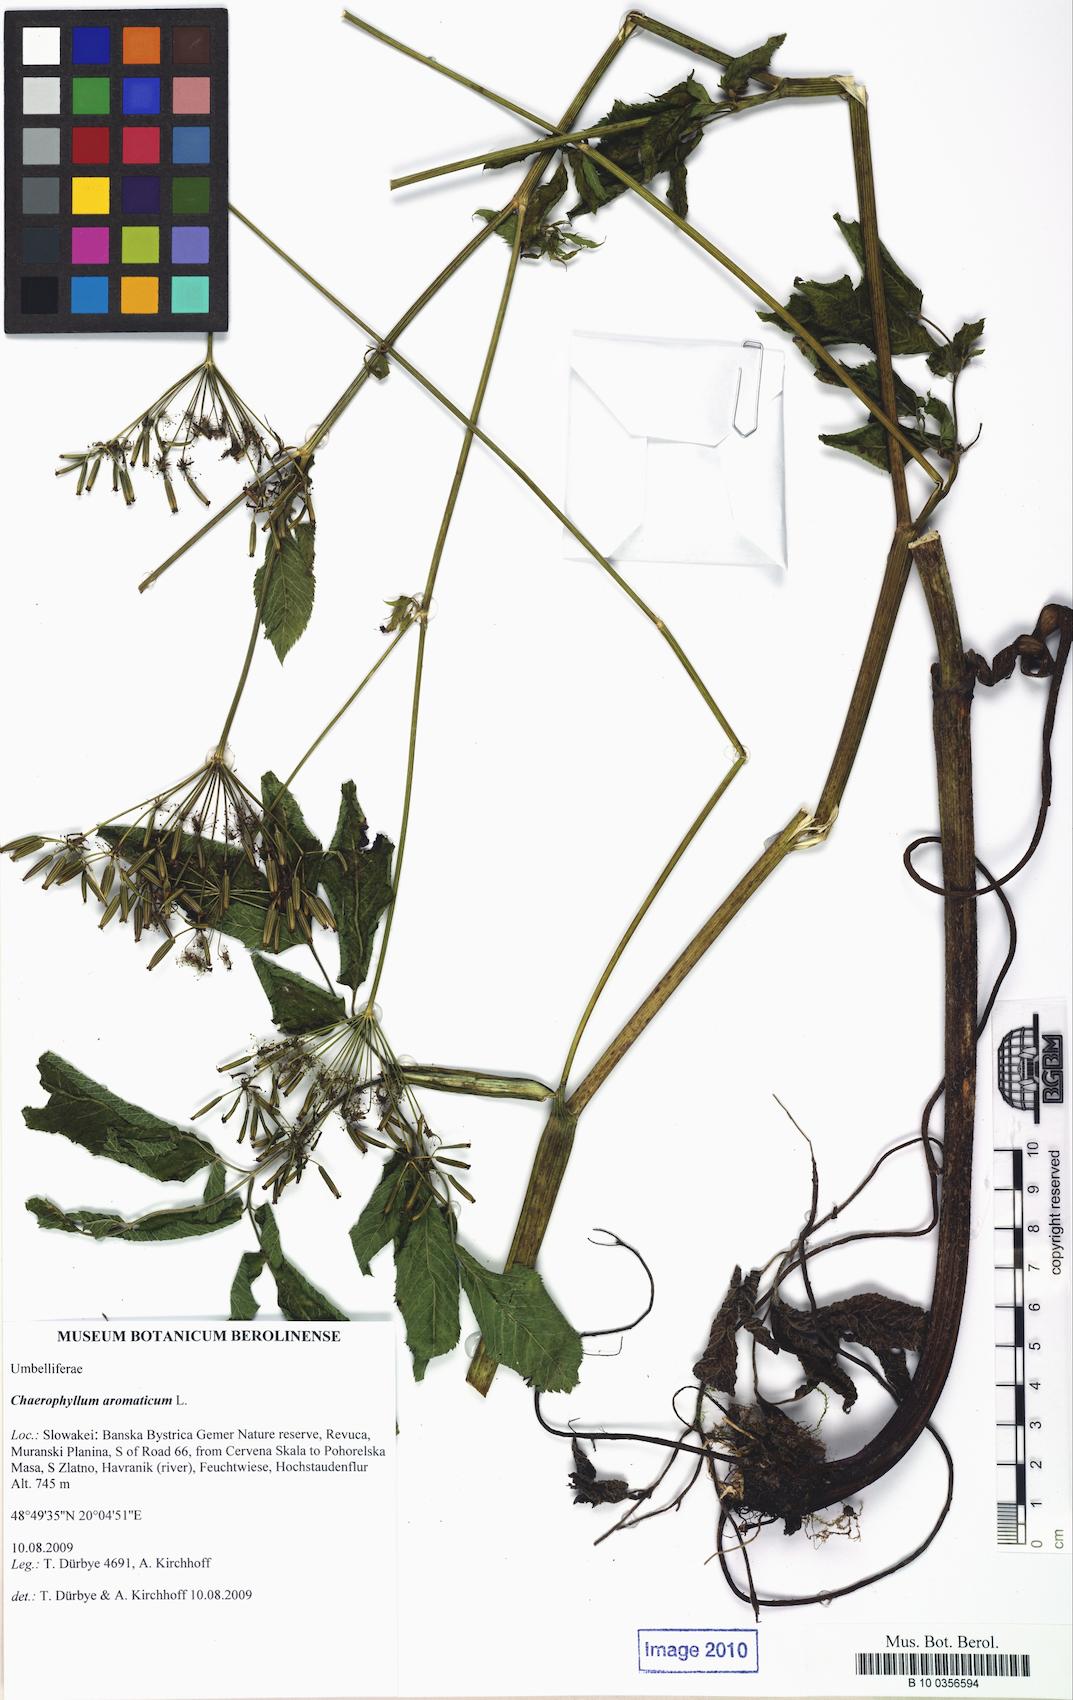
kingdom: Plantae
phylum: Tracheophyta
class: Magnoliopsida
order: Apiales
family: Apiaceae
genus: Chaerophyllum
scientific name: Chaerophyllum aromaticum
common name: Broadleaf chervil
